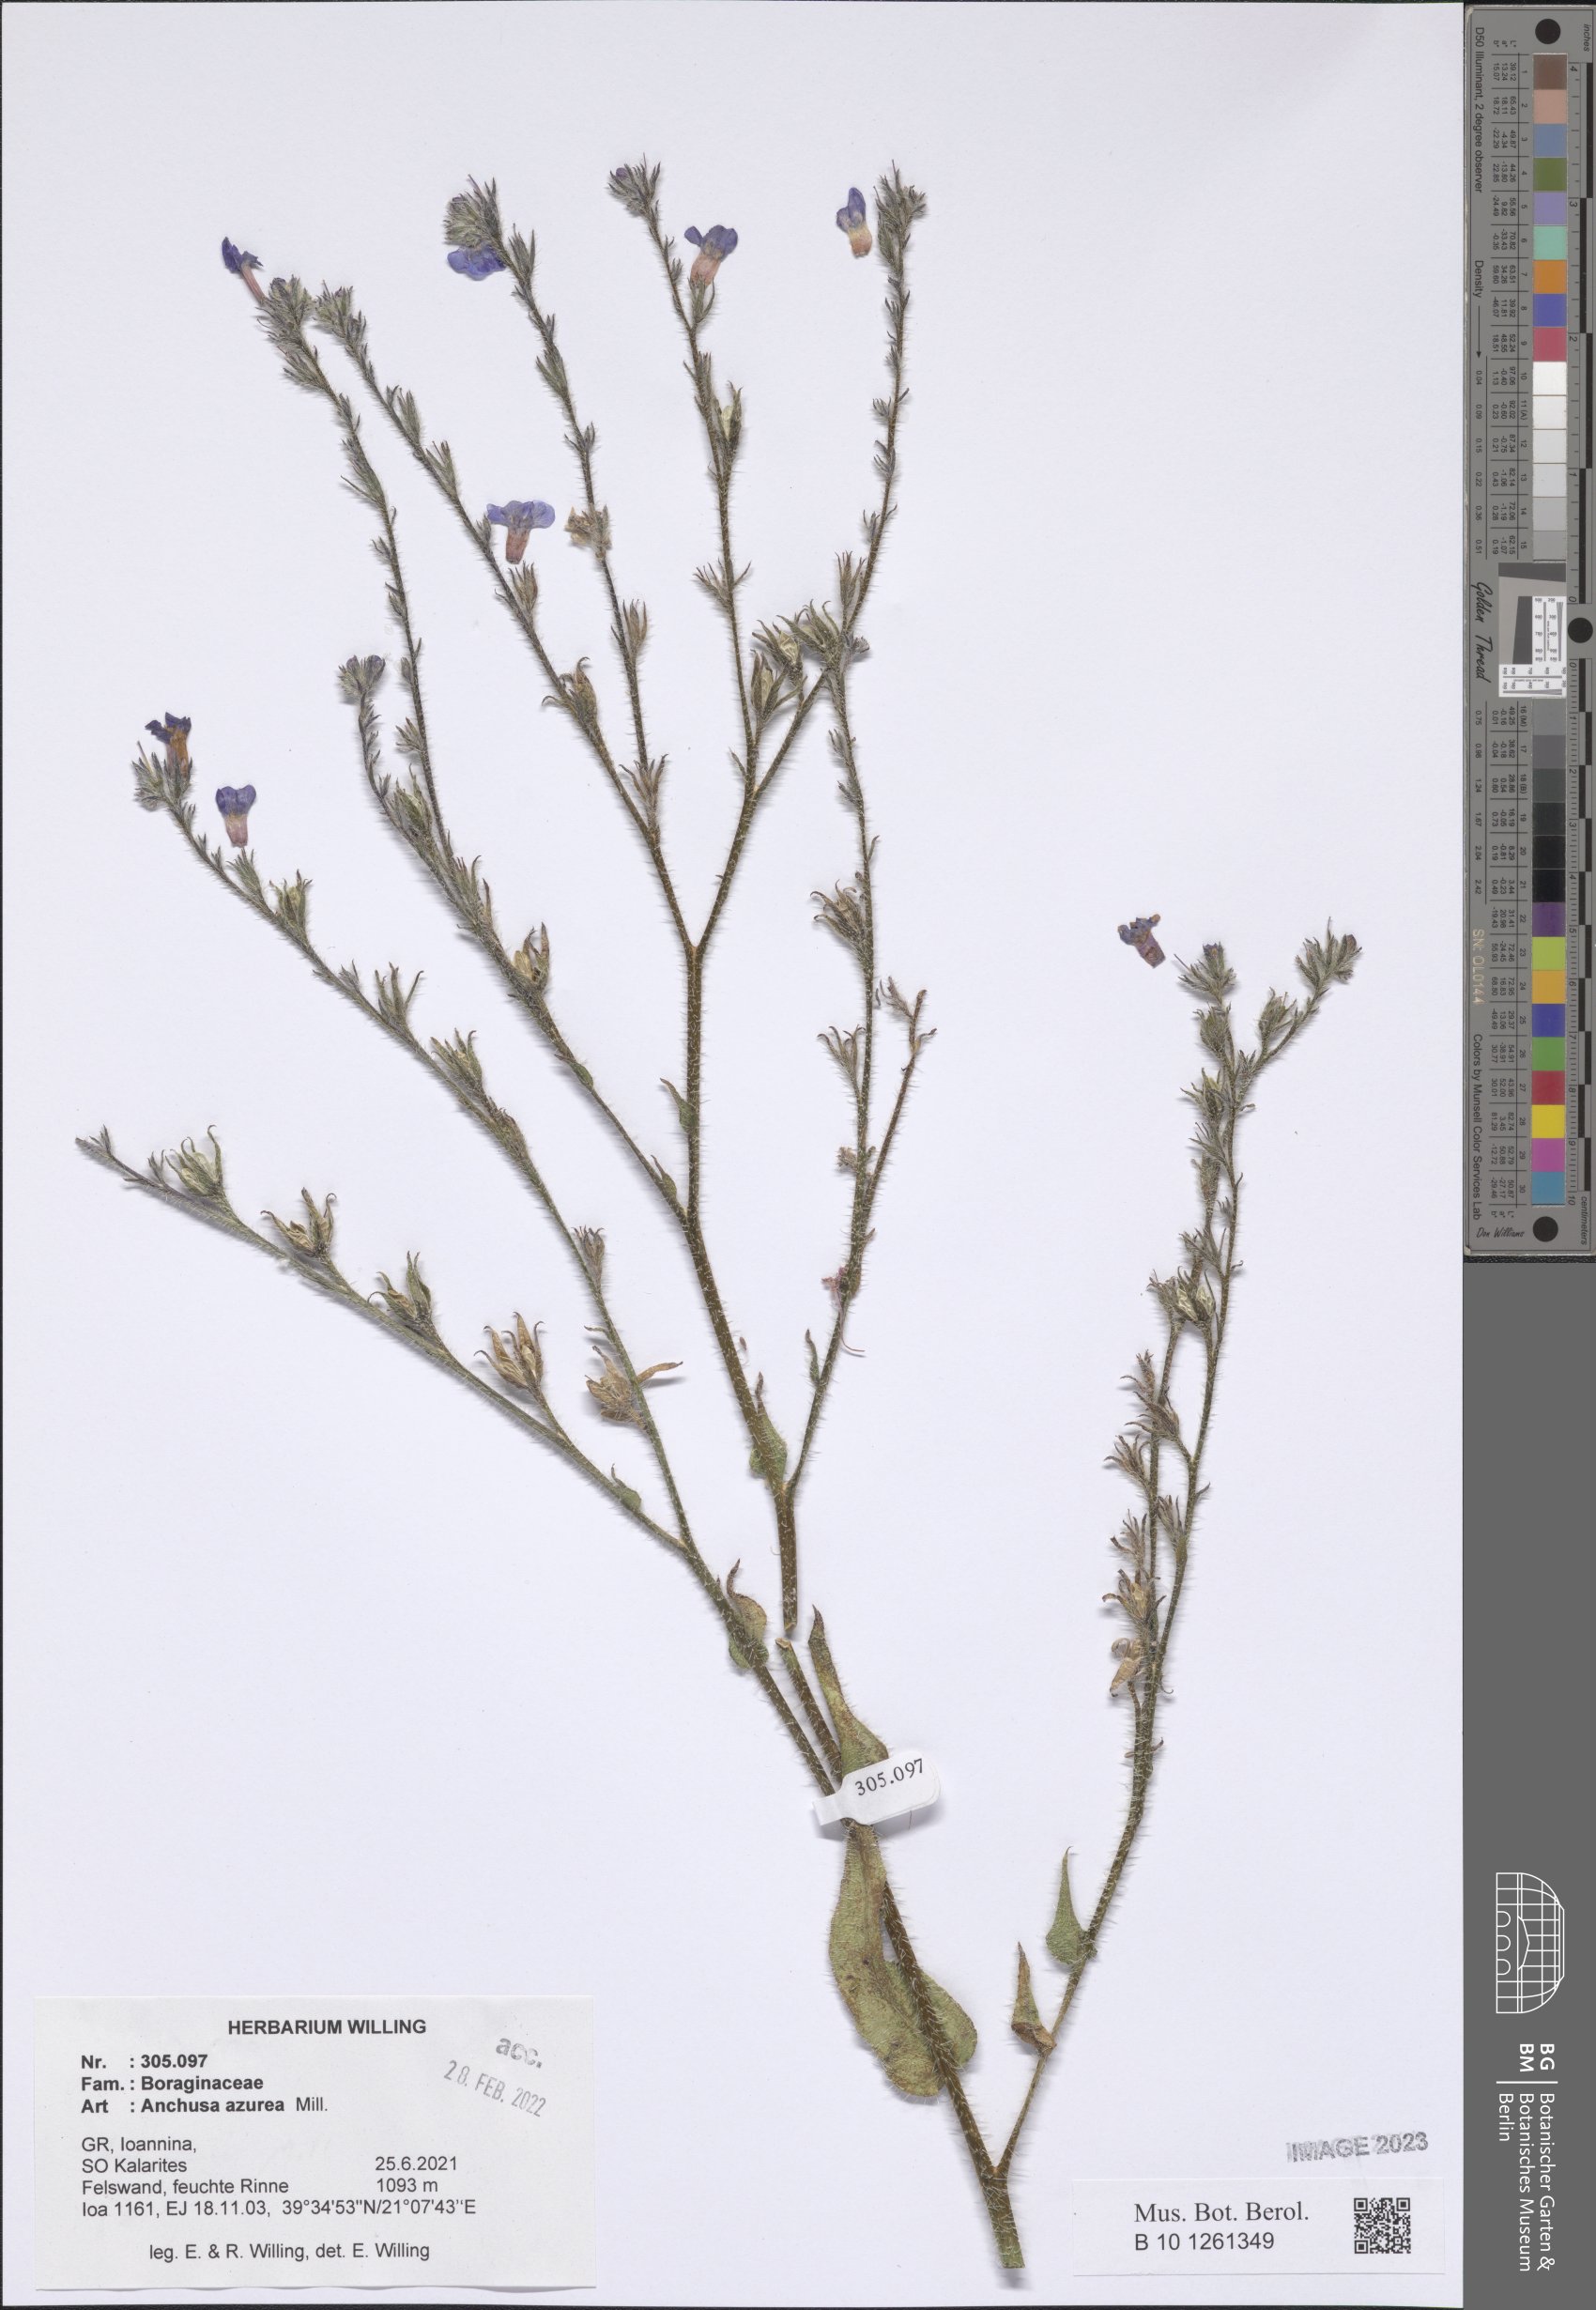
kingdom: Plantae
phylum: Tracheophyta
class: Magnoliopsida
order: Boraginales
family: Boraginaceae
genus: Anchusa
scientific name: Anchusa azurea
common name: Garden anchusa
